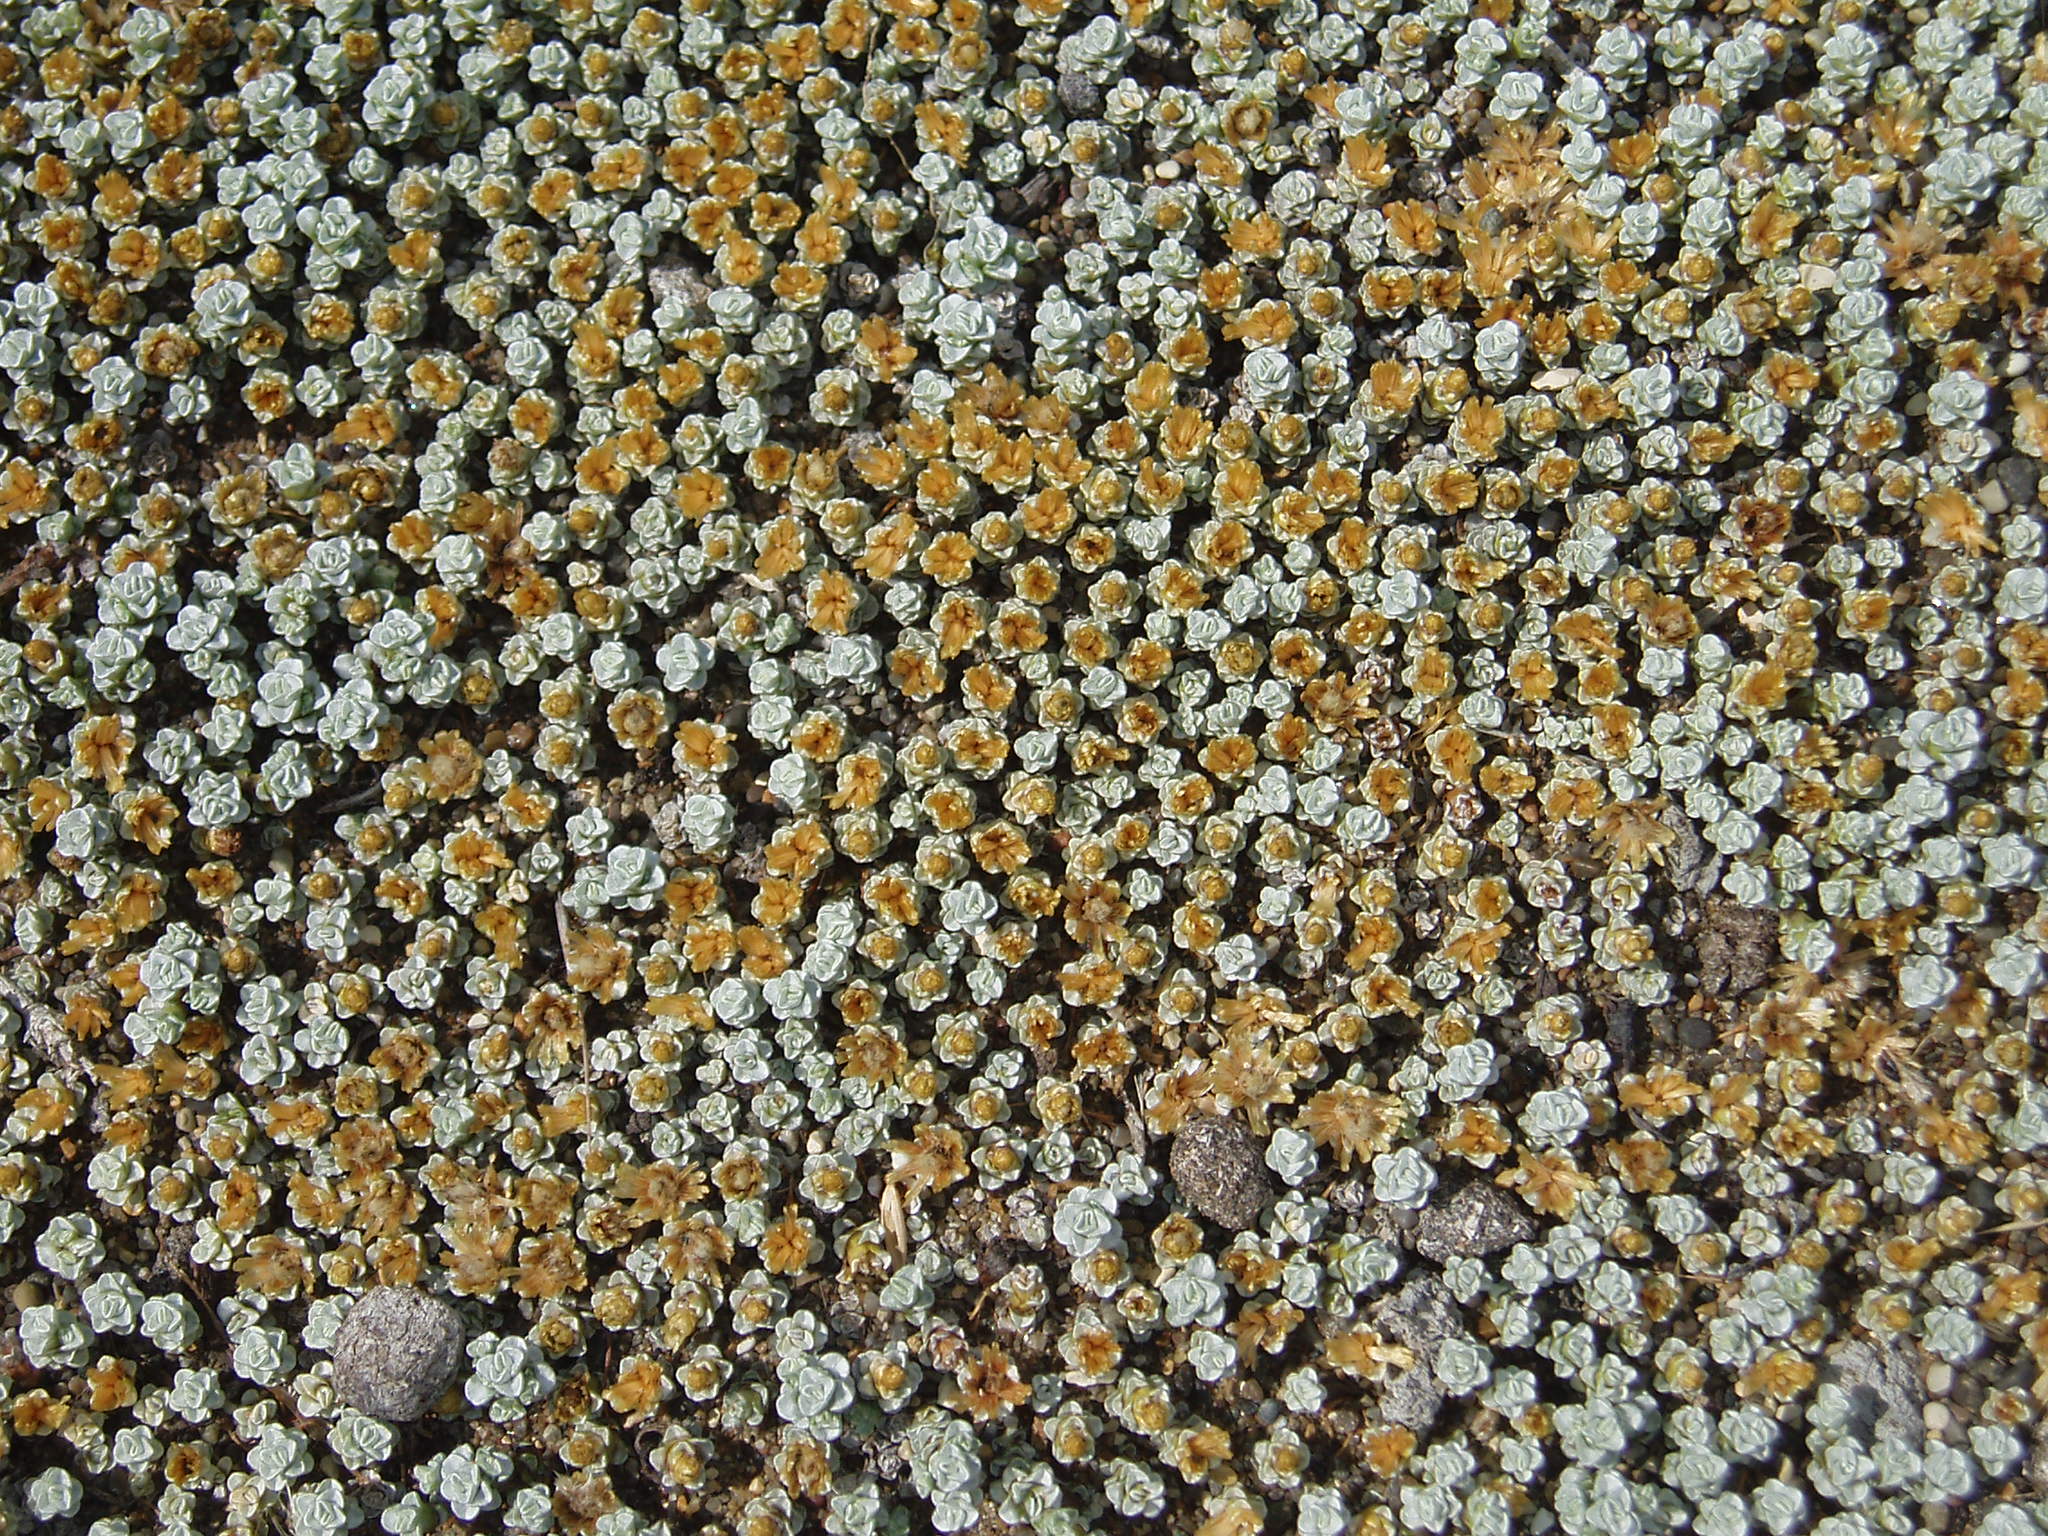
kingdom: Plantae
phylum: Tracheophyta
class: Magnoliopsida
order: Asterales
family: Asteraceae
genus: Raoulia
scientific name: Raoulia hookeri
